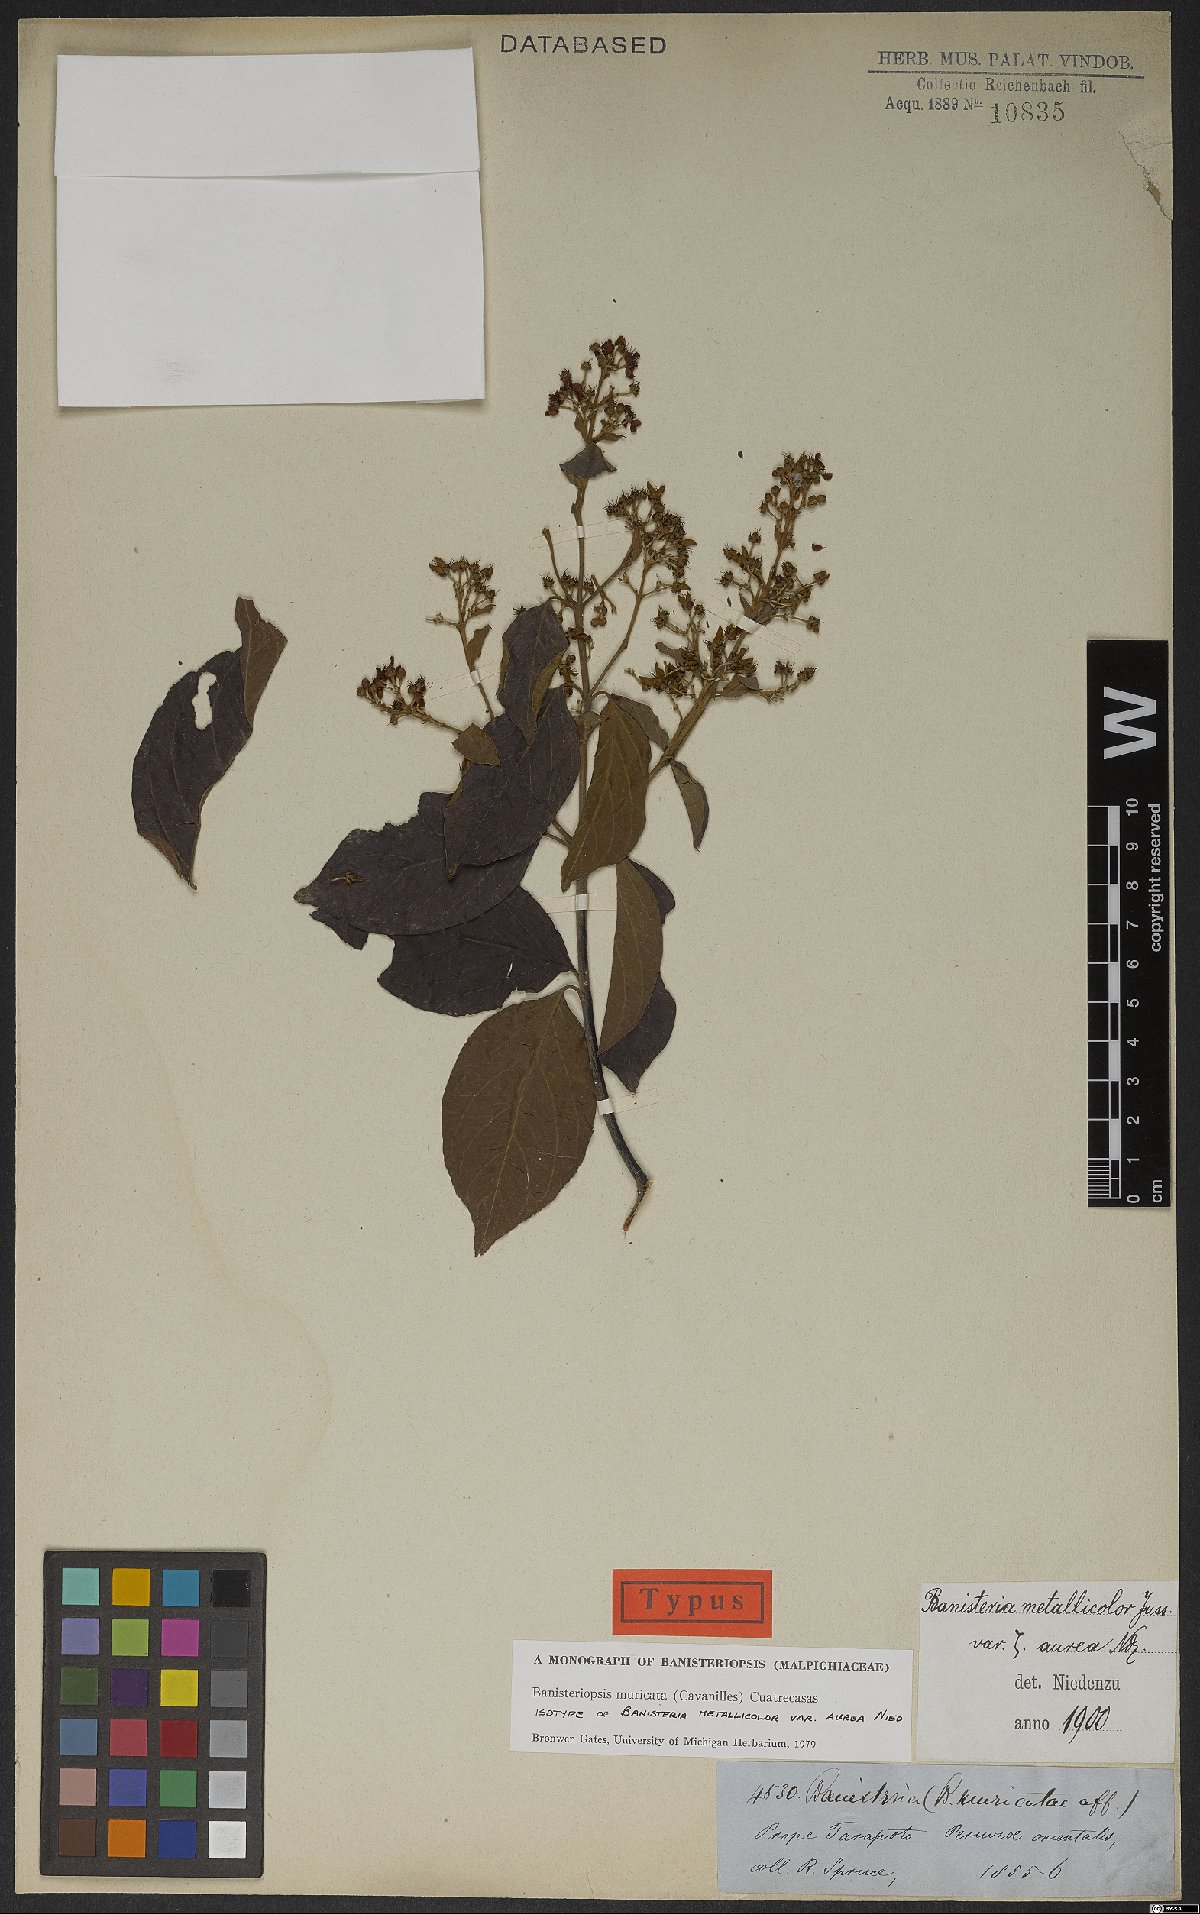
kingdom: Plantae
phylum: Tracheophyta
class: Magnoliopsida
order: Malpighiales
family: Malpighiaceae
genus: Banisteriopsis
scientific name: Banisteriopsis muricata
